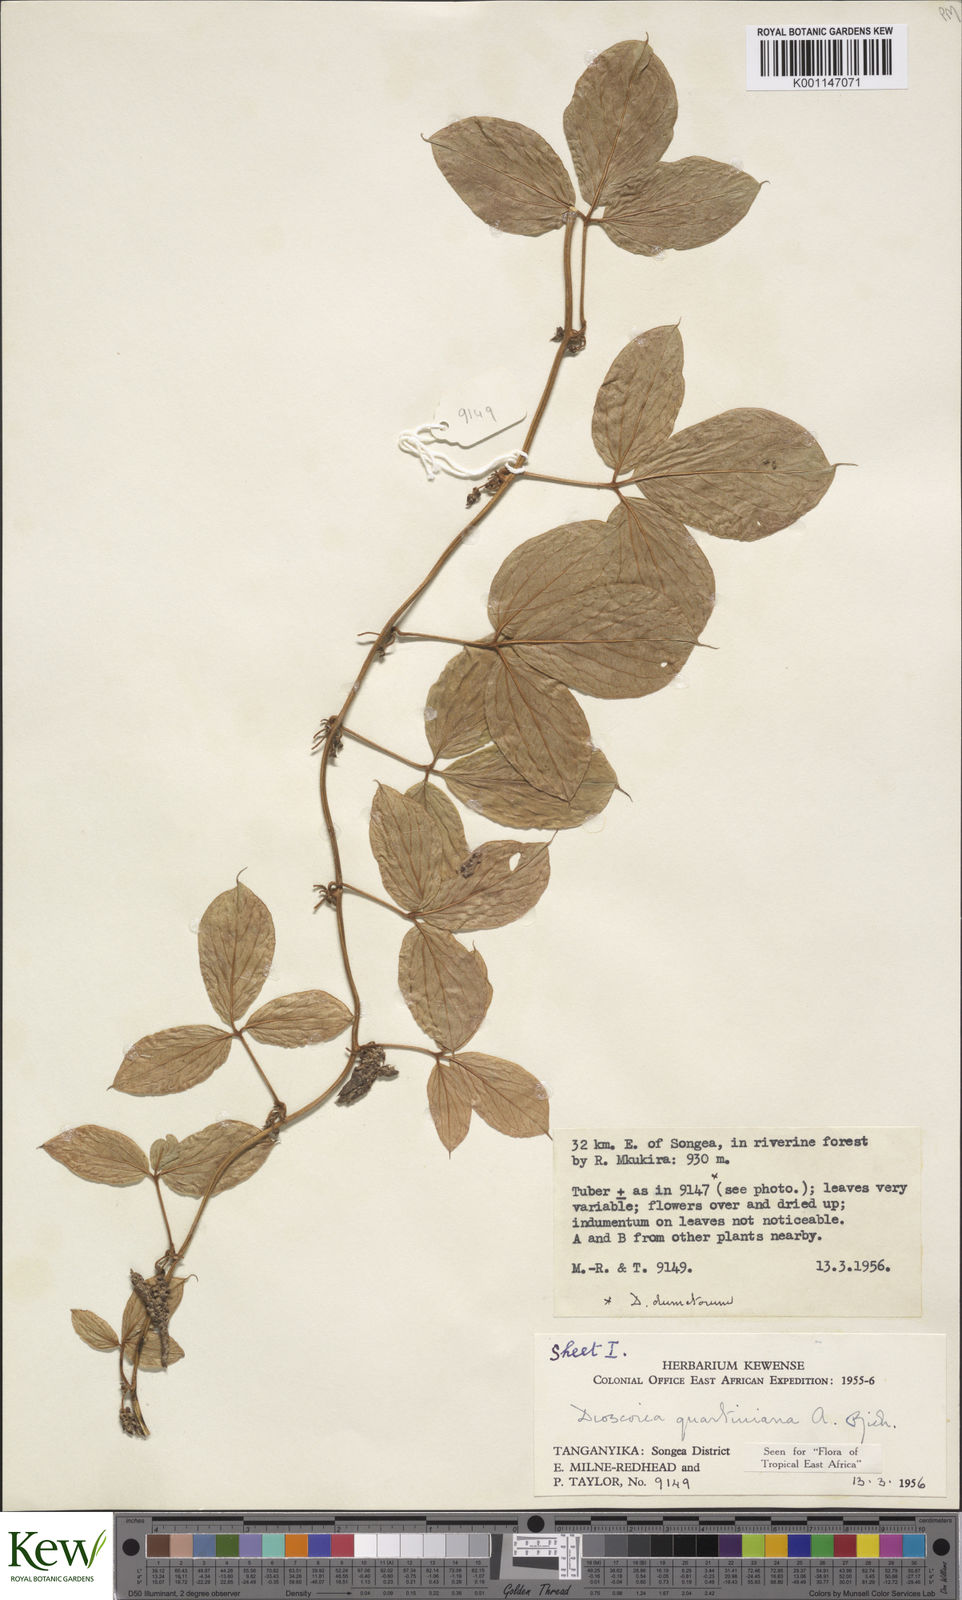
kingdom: Plantae
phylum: Tracheophyta
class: Liliopsida
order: Dioscoreales
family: Dioscoreaceae
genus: Dioscorea
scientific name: Dioscorea quartiniana
